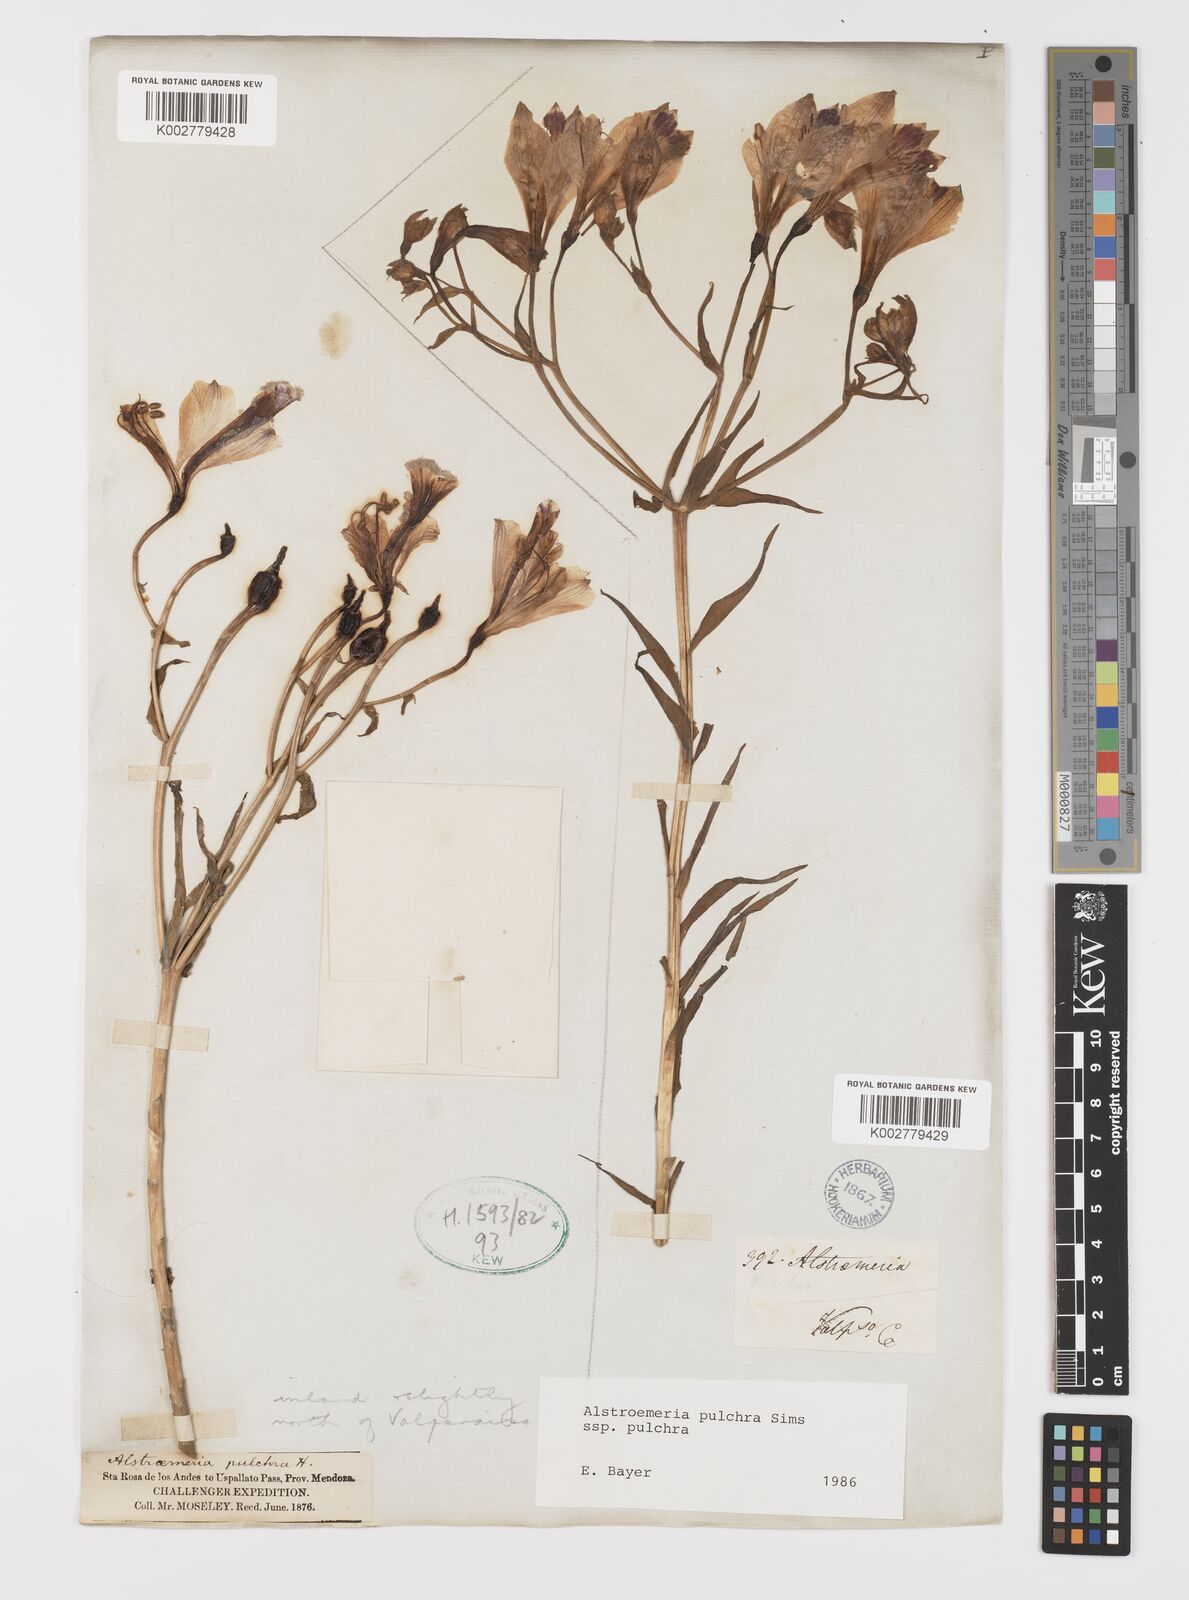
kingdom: Plantae
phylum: Tracheophyta
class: Liliopsida
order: Liliales
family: Alstroemeriaceae
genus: Alstroemeria
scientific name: Alstroemeria pulchra
